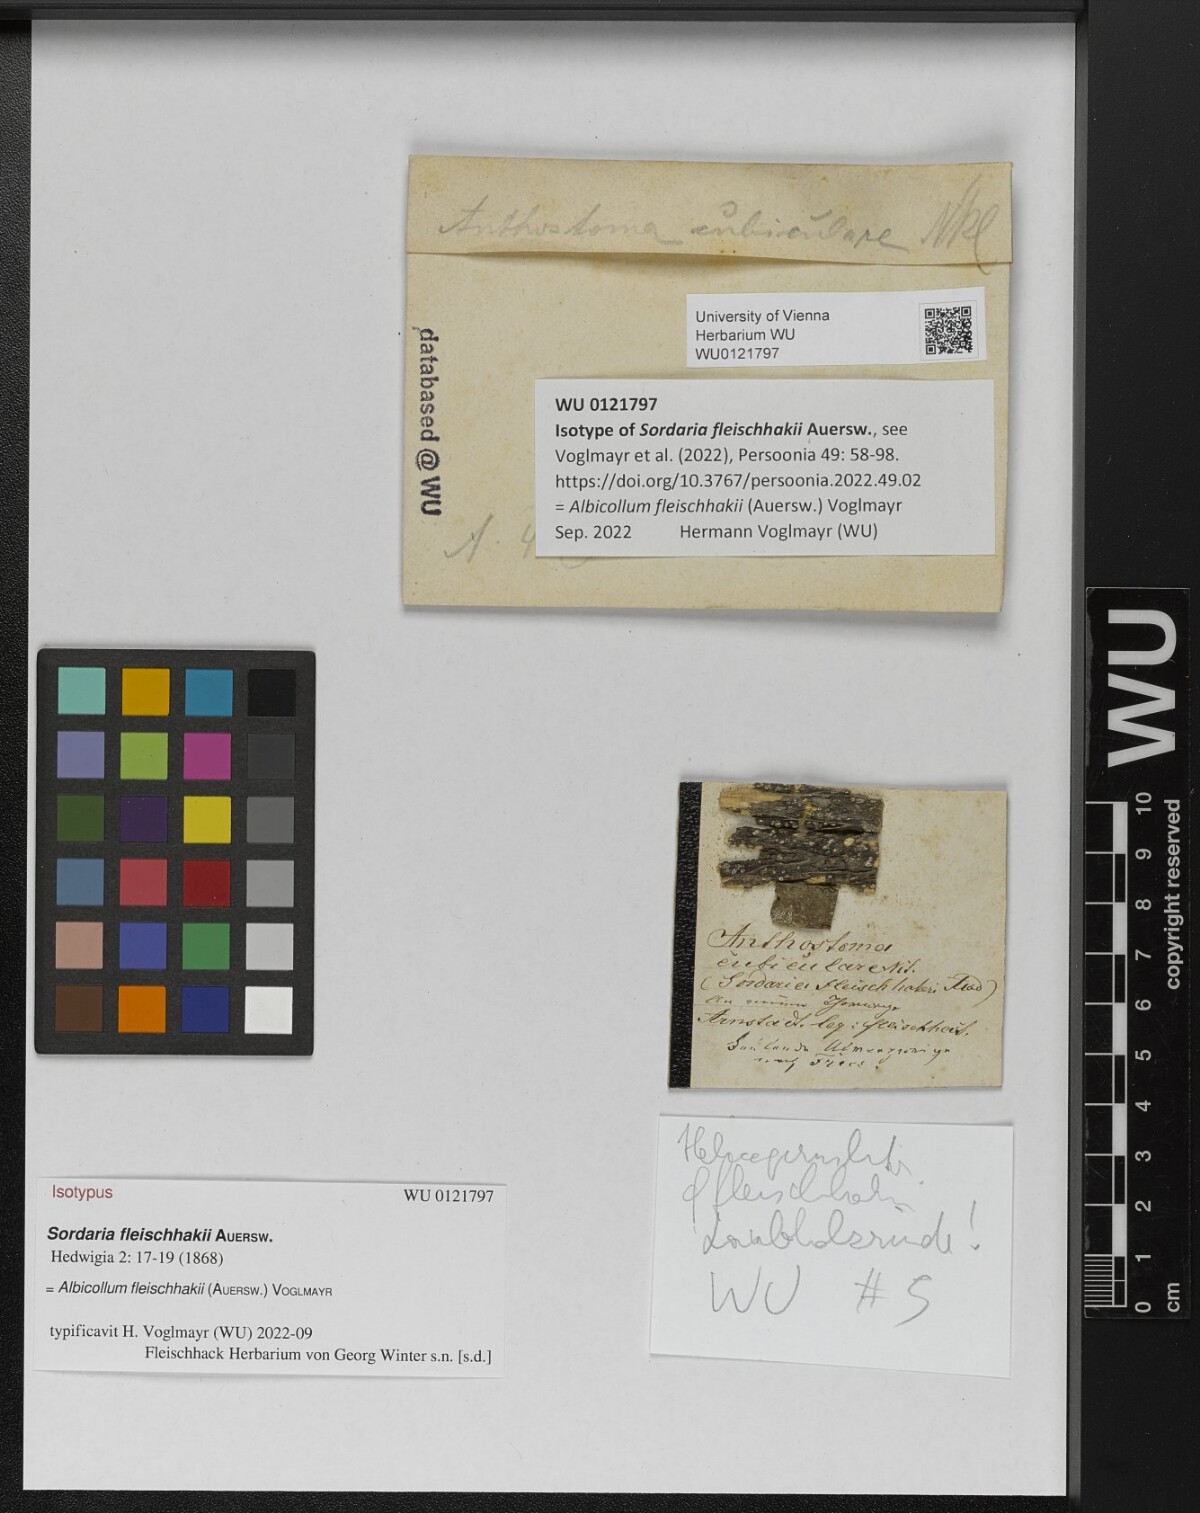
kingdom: Fungi
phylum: Ascomycota
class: Sordariomycetes
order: Xylariales
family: Xylariaceae
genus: Albicollum
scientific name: Albicollum fleischhakii
